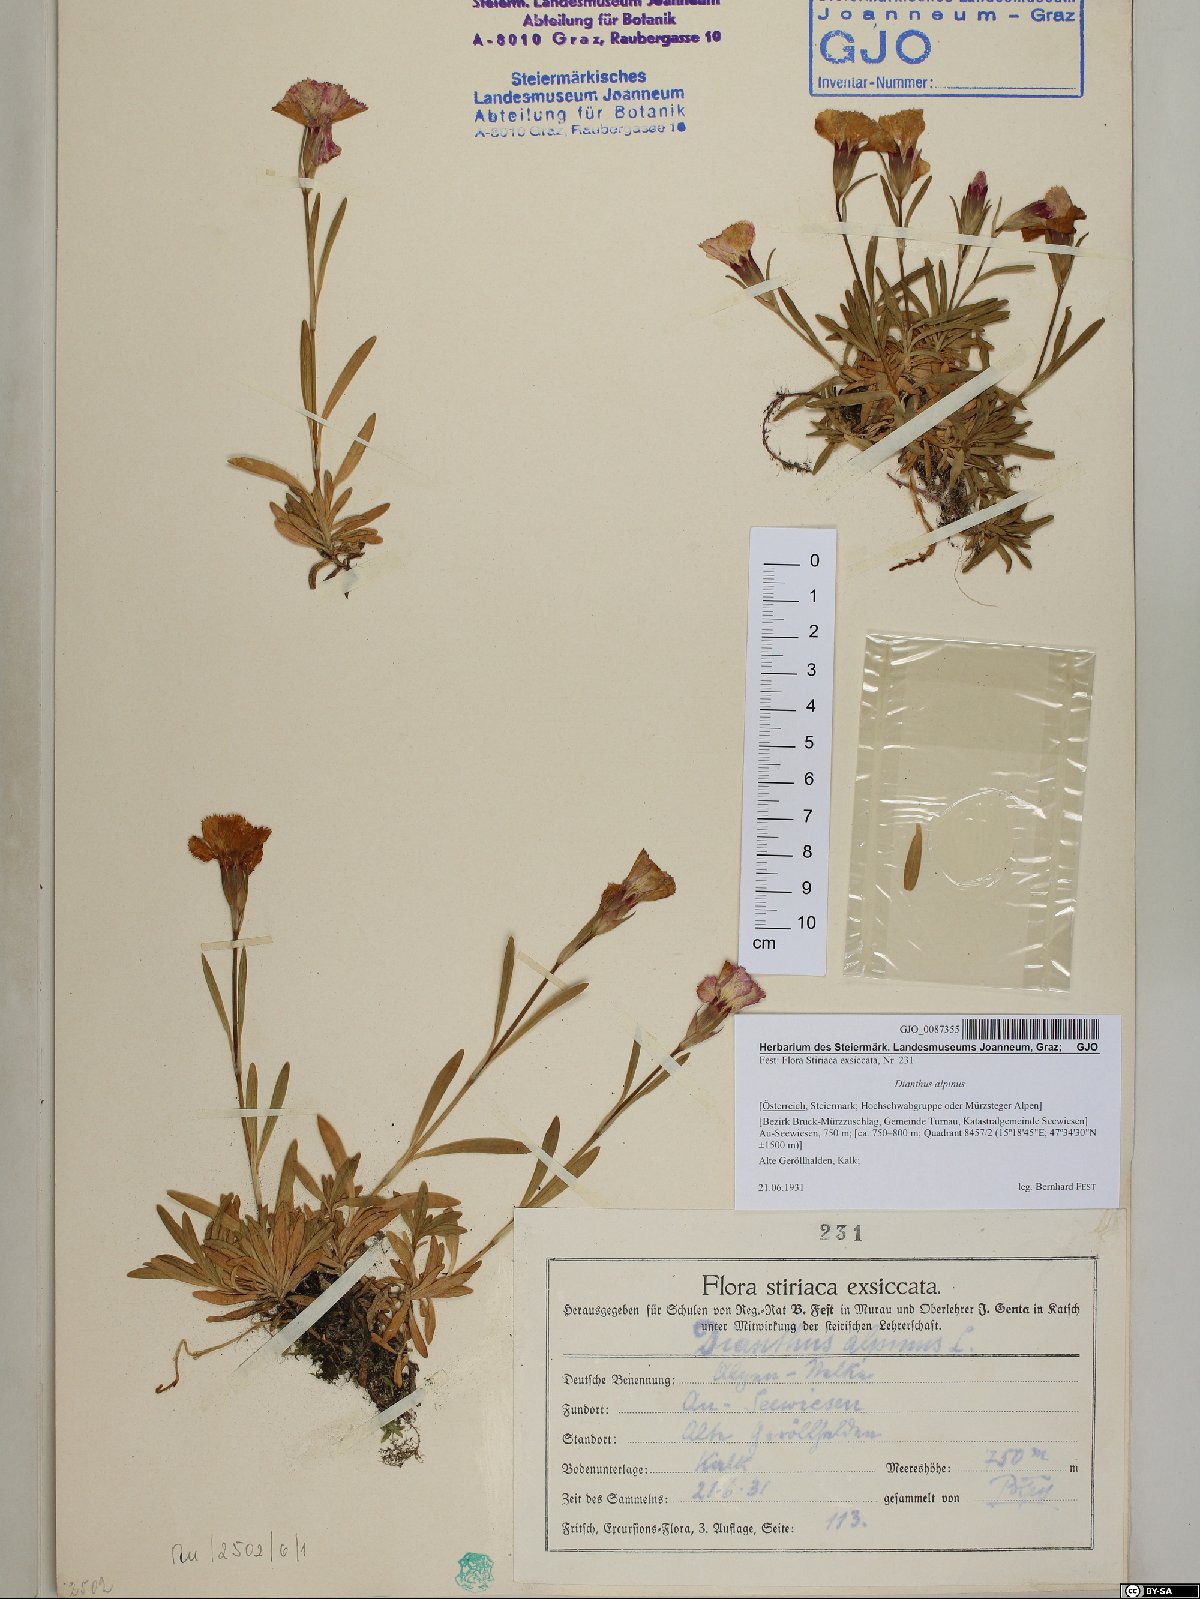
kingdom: Plantae
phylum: Tracheophyta
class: Magnoliopsida
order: Caryophyllales
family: Caryophyllaceae
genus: Dianthus
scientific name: Dianthus alpinus
